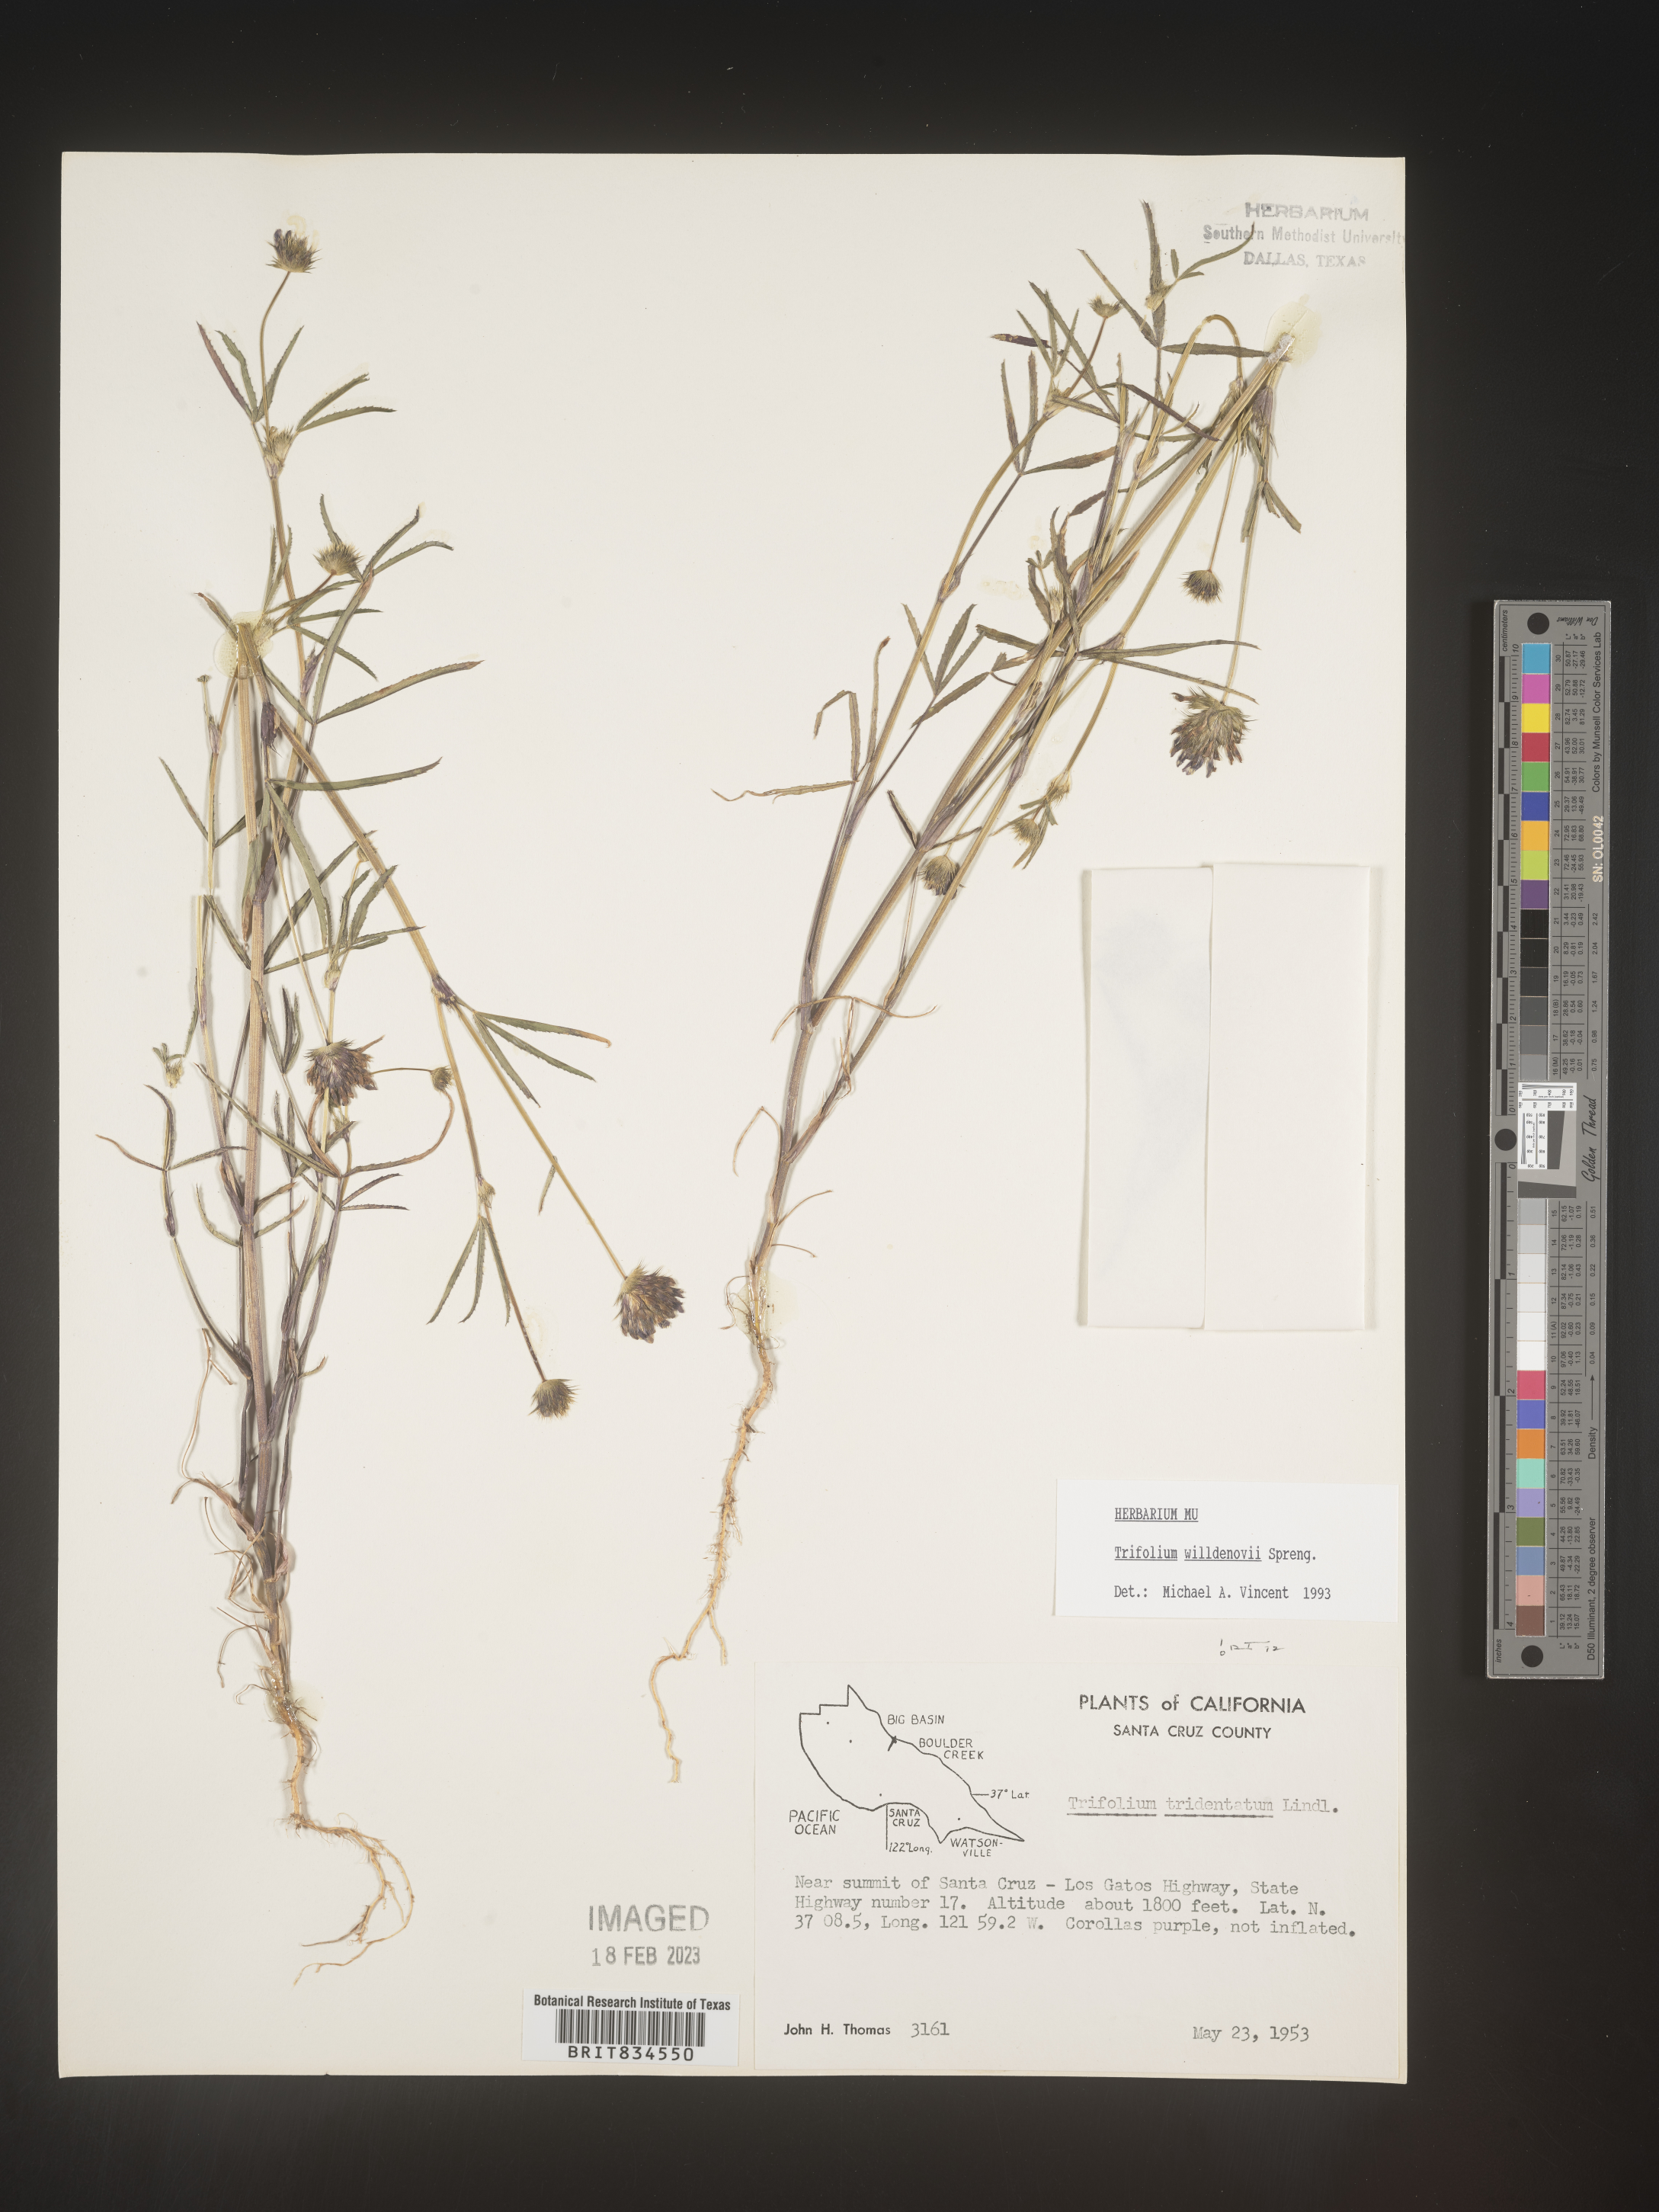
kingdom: Plantae
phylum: Tracheophyta
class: Magnoliopsida
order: Fabales
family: Fabaceae
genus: Trifolium
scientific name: Trifolium
